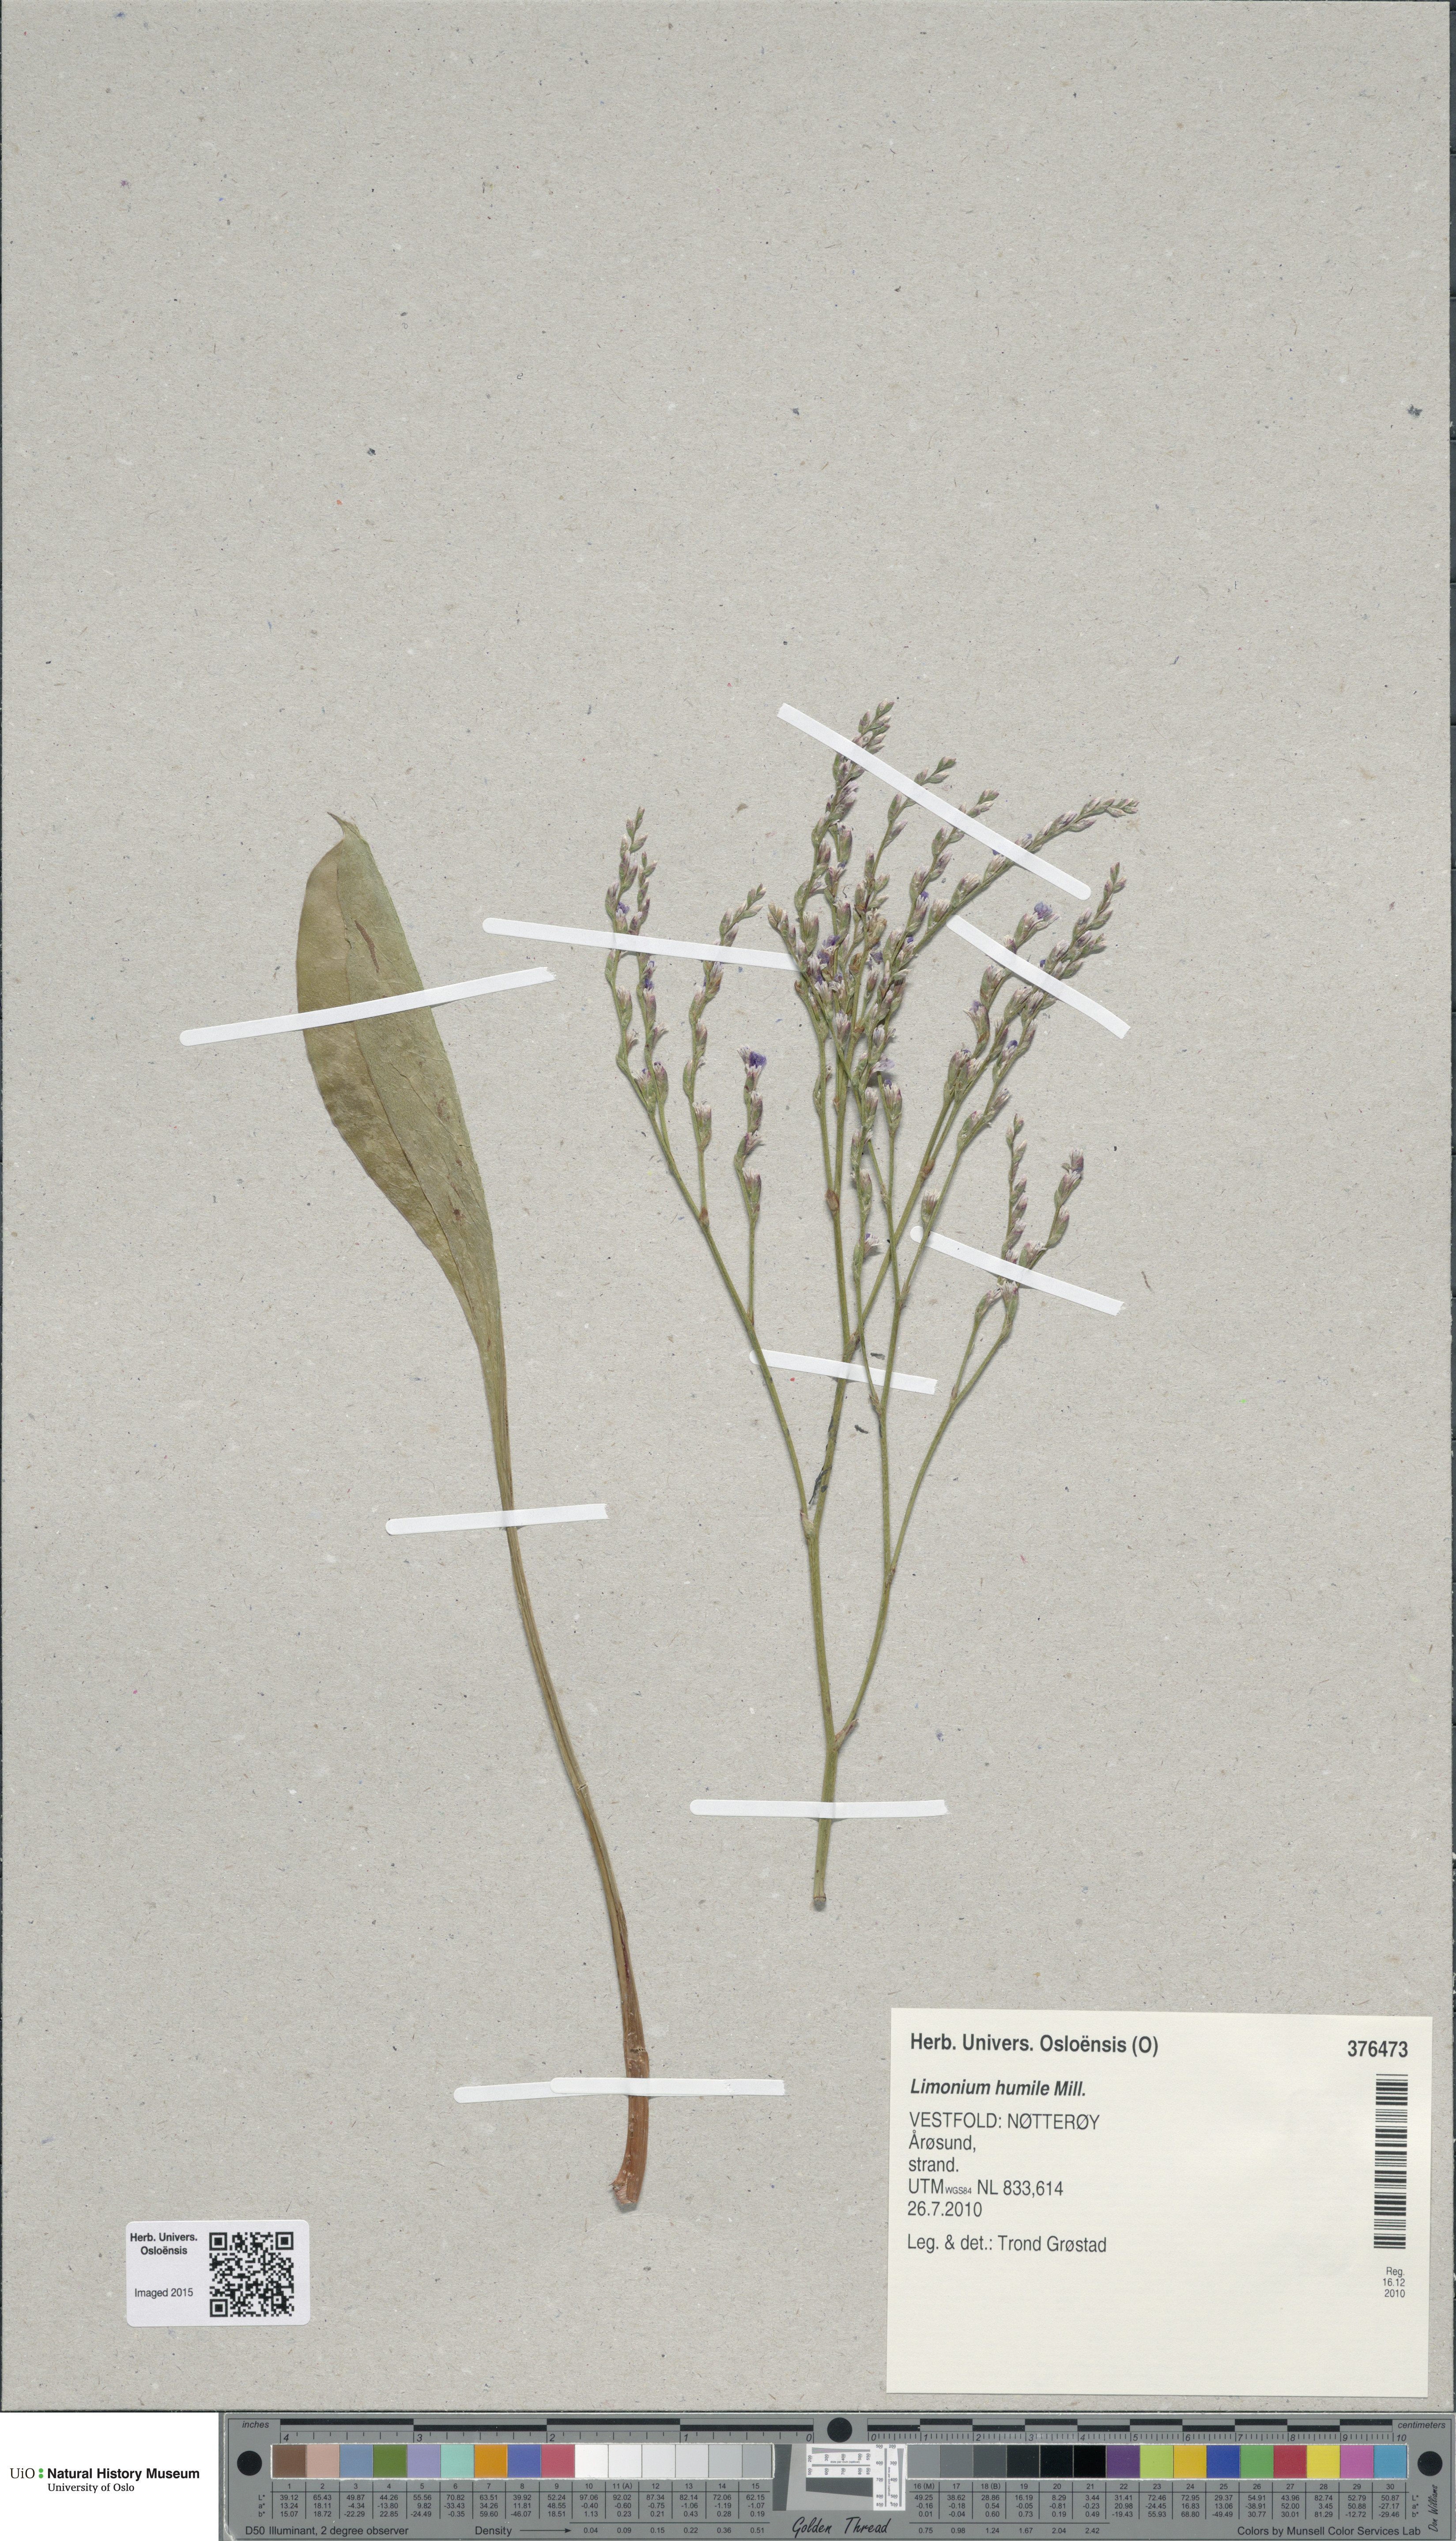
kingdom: Plantae
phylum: Tracheophyta
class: Magnoliopsida
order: Caryophyllales
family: Plumbaginaceae
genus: Limonium
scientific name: Limonium humile
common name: Lax-flowered sea-lavender
